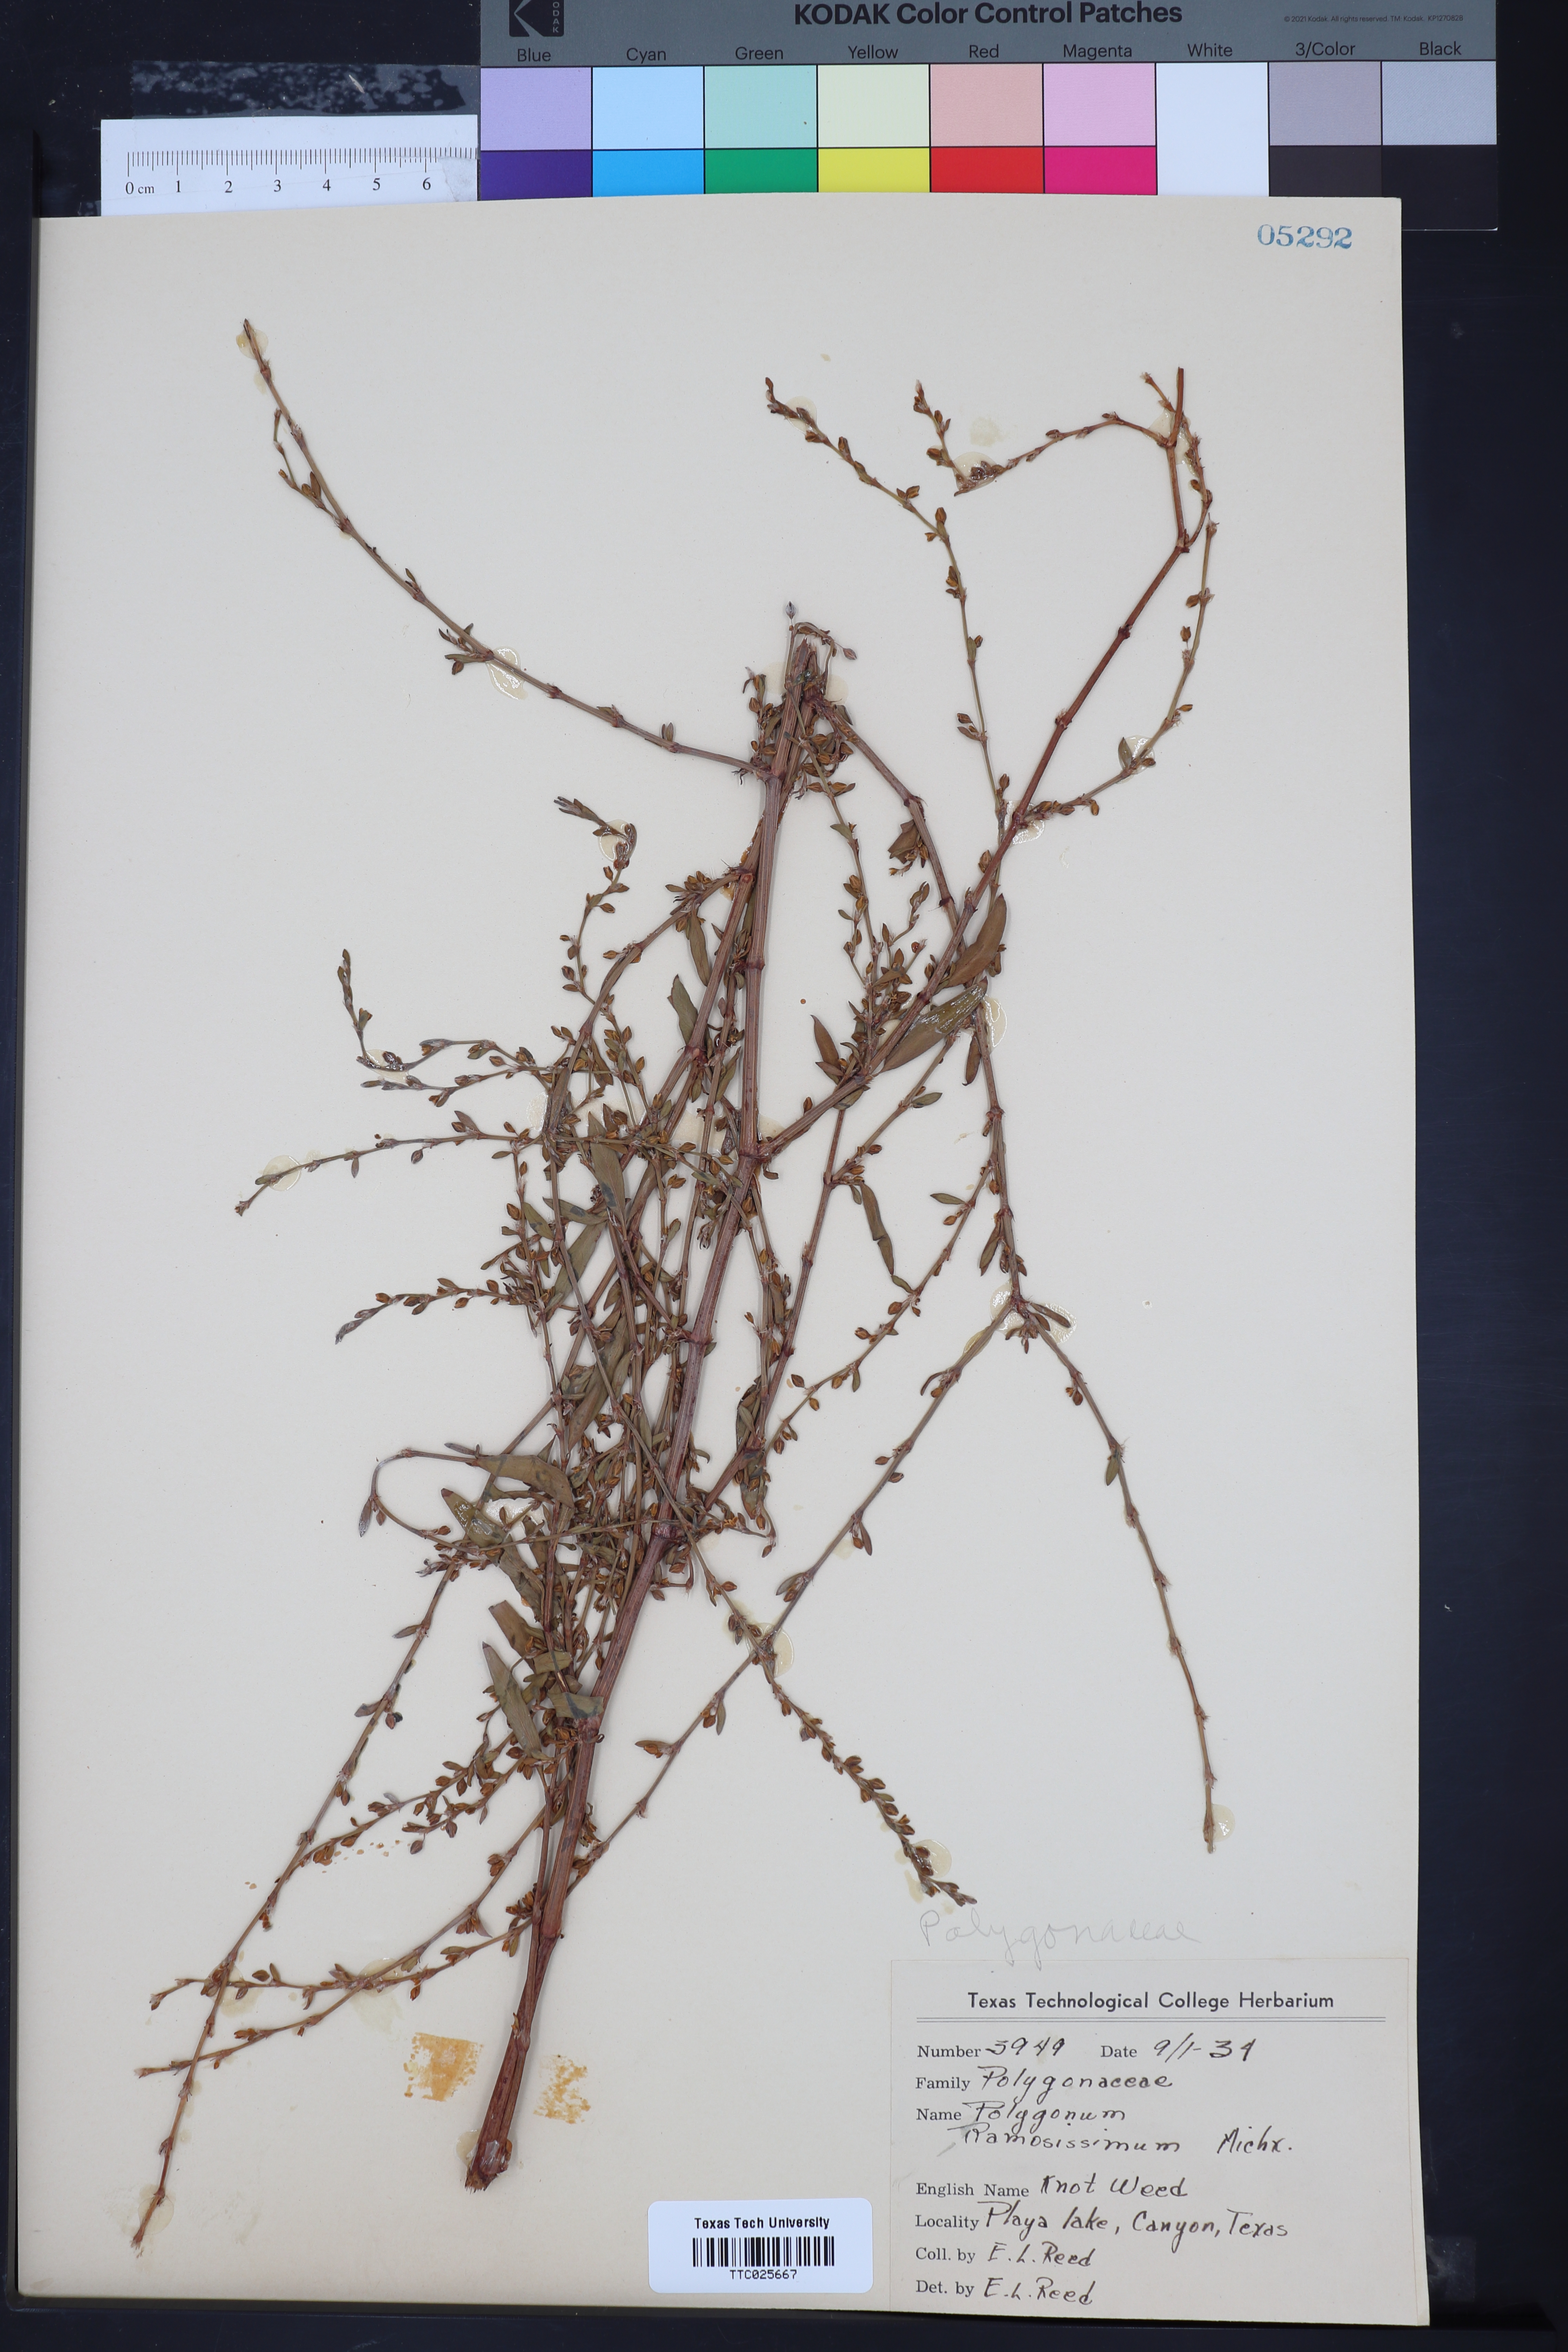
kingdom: Plantae
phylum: Tracheophyta
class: Magnoliopsida
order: Caryophyllales
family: Polygonaceae
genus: Polygonum
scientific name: Polygonum ramosissimum
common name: Bushy knotweed
